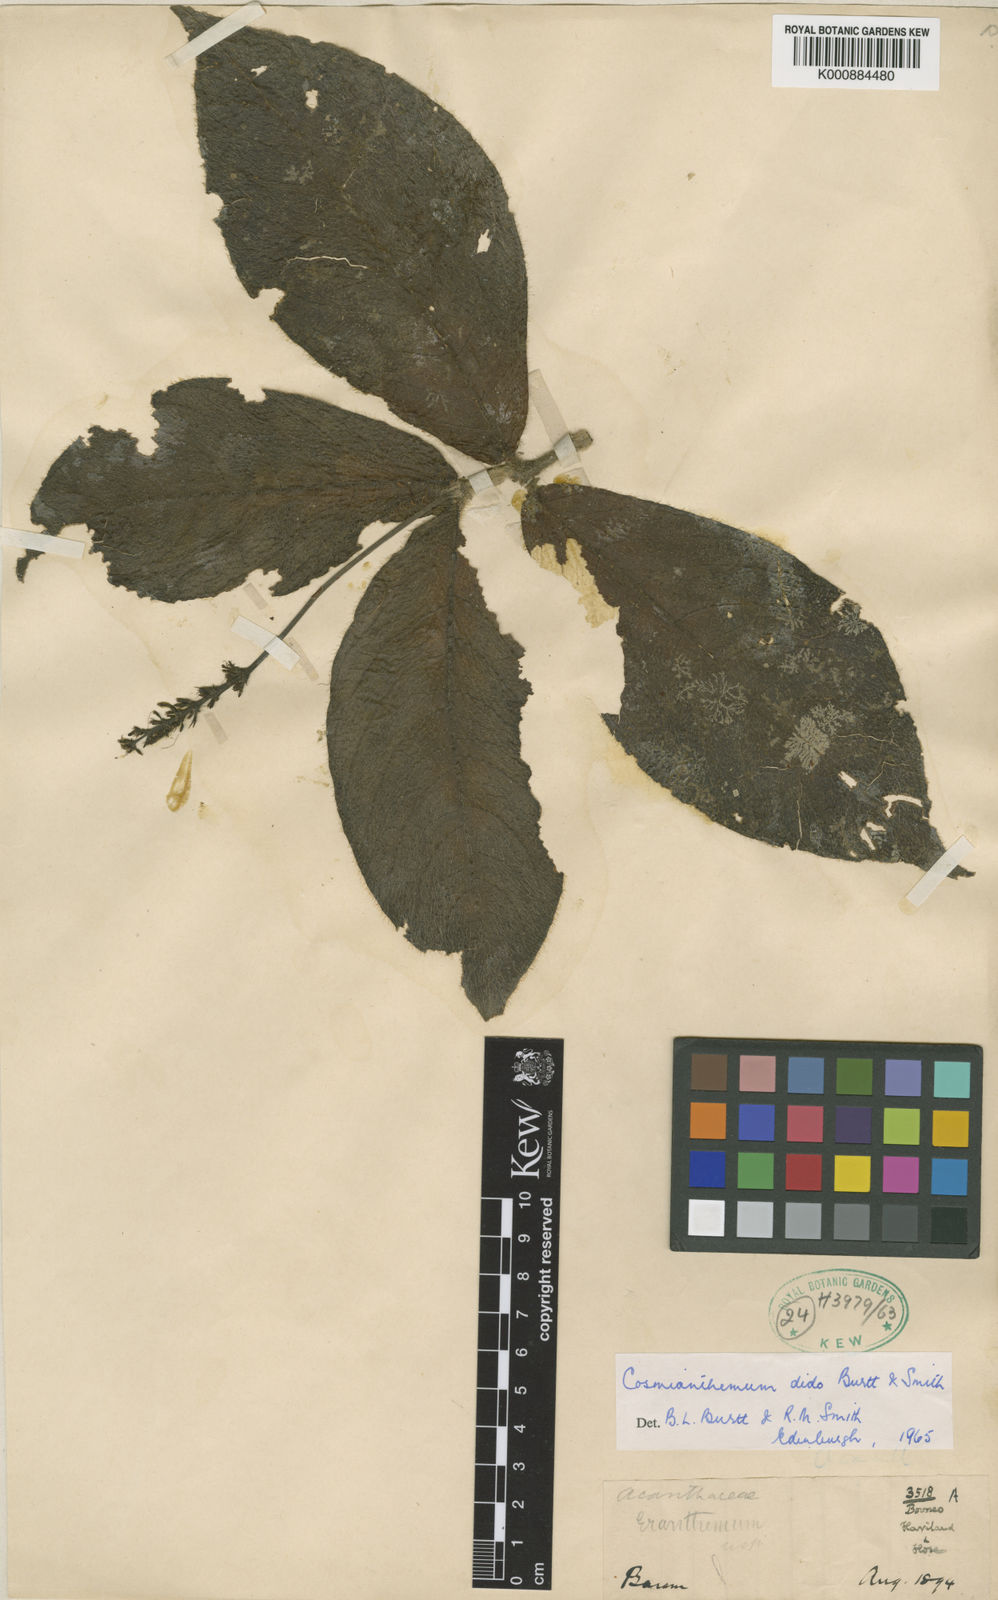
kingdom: Plantae
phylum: Tracheophyta
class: Magnoliopsida
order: Lamiales
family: Acanthaceae
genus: Cosmianthemum
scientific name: Cosmianthemum dido
